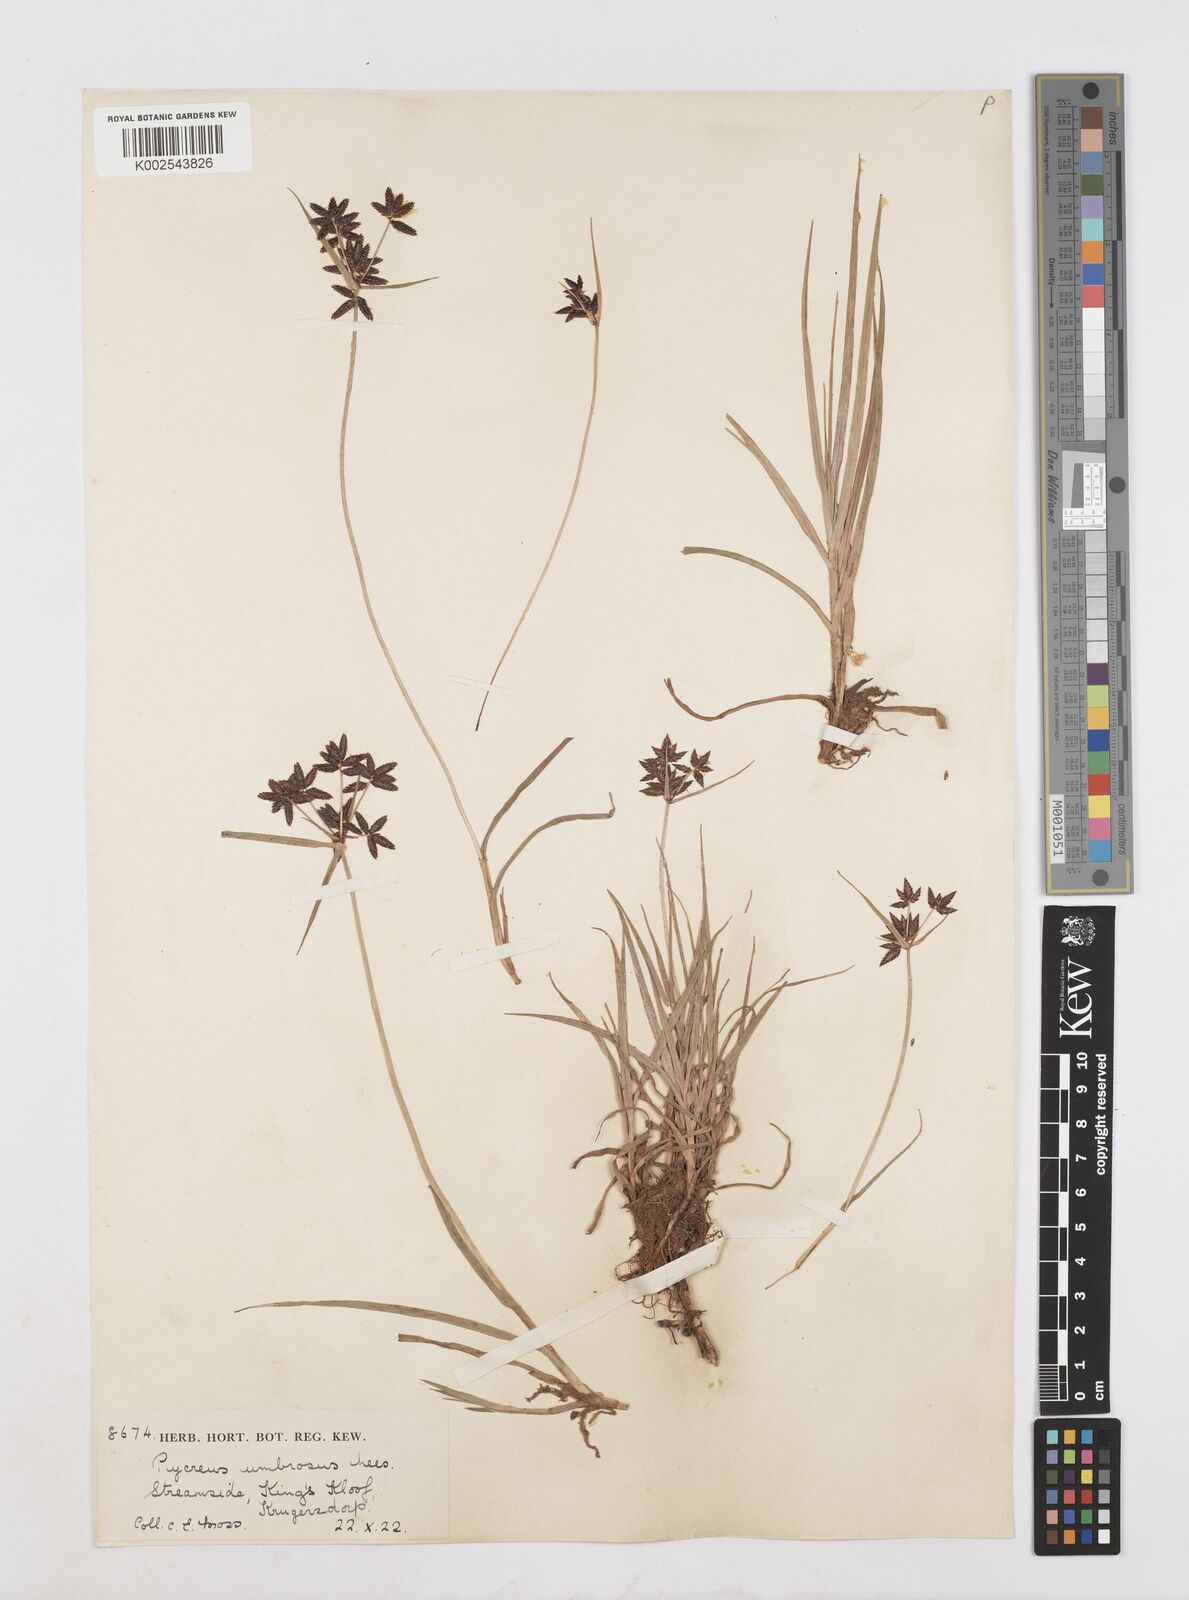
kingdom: Plantae
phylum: Tracheophyta
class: Liliopsida
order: Poales
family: Cyperaceae
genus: Cyperus
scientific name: Cyperus mundii
